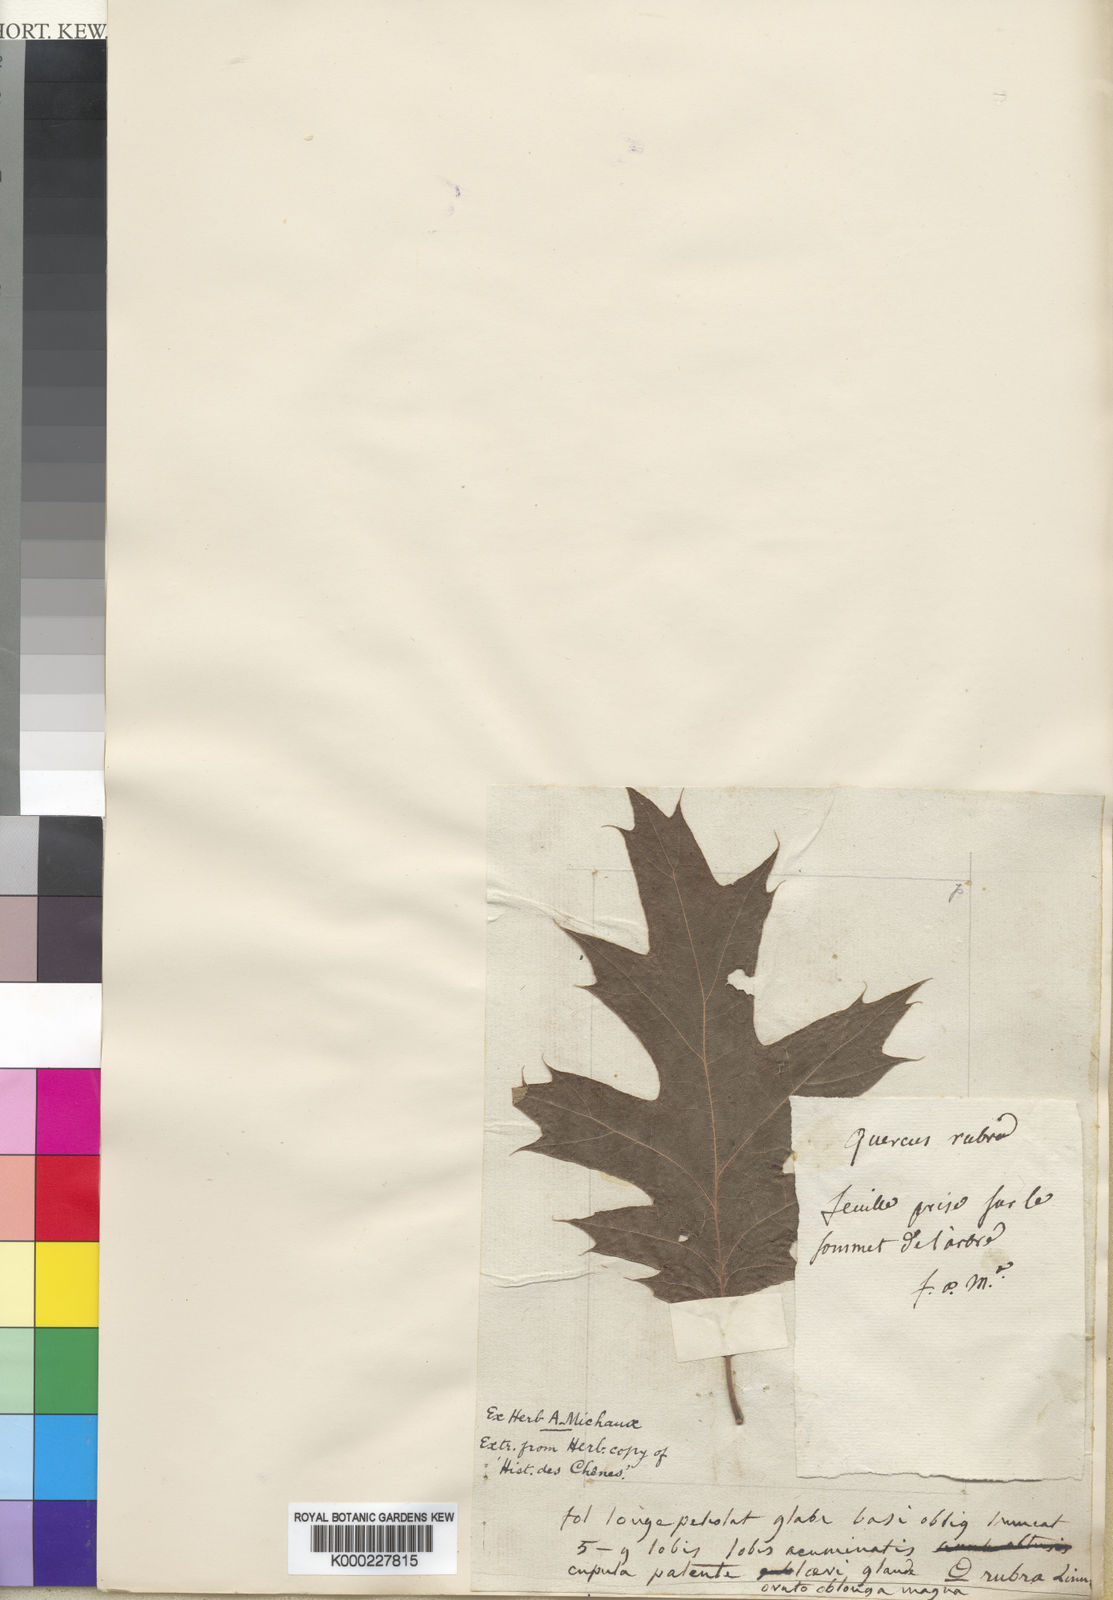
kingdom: Plantae
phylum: Tracheophyta
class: Magnoliopsida
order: Fagales
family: Fagaceae
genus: Quercus
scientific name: Quercus rubra
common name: Red oak
